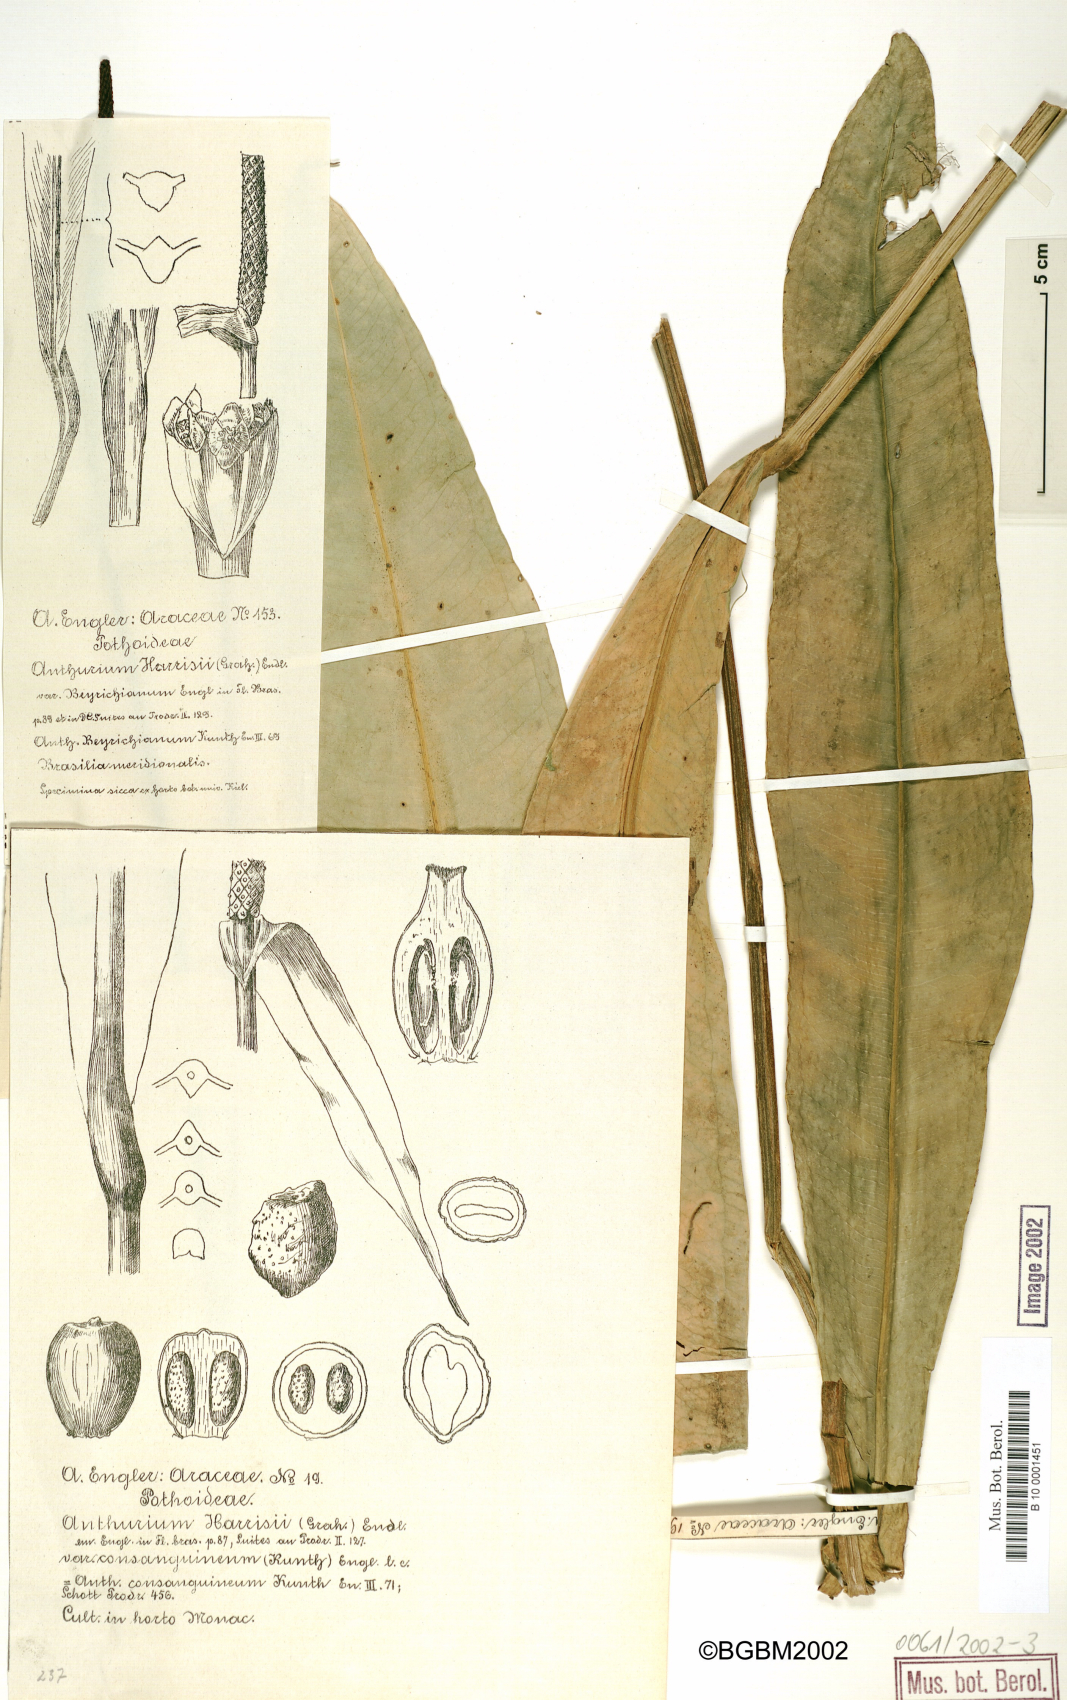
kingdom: Plantae
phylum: Tracheophyta
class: Liliopsida
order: Alismatales
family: Araceae
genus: Anthurium
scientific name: Anthurium harrisii
